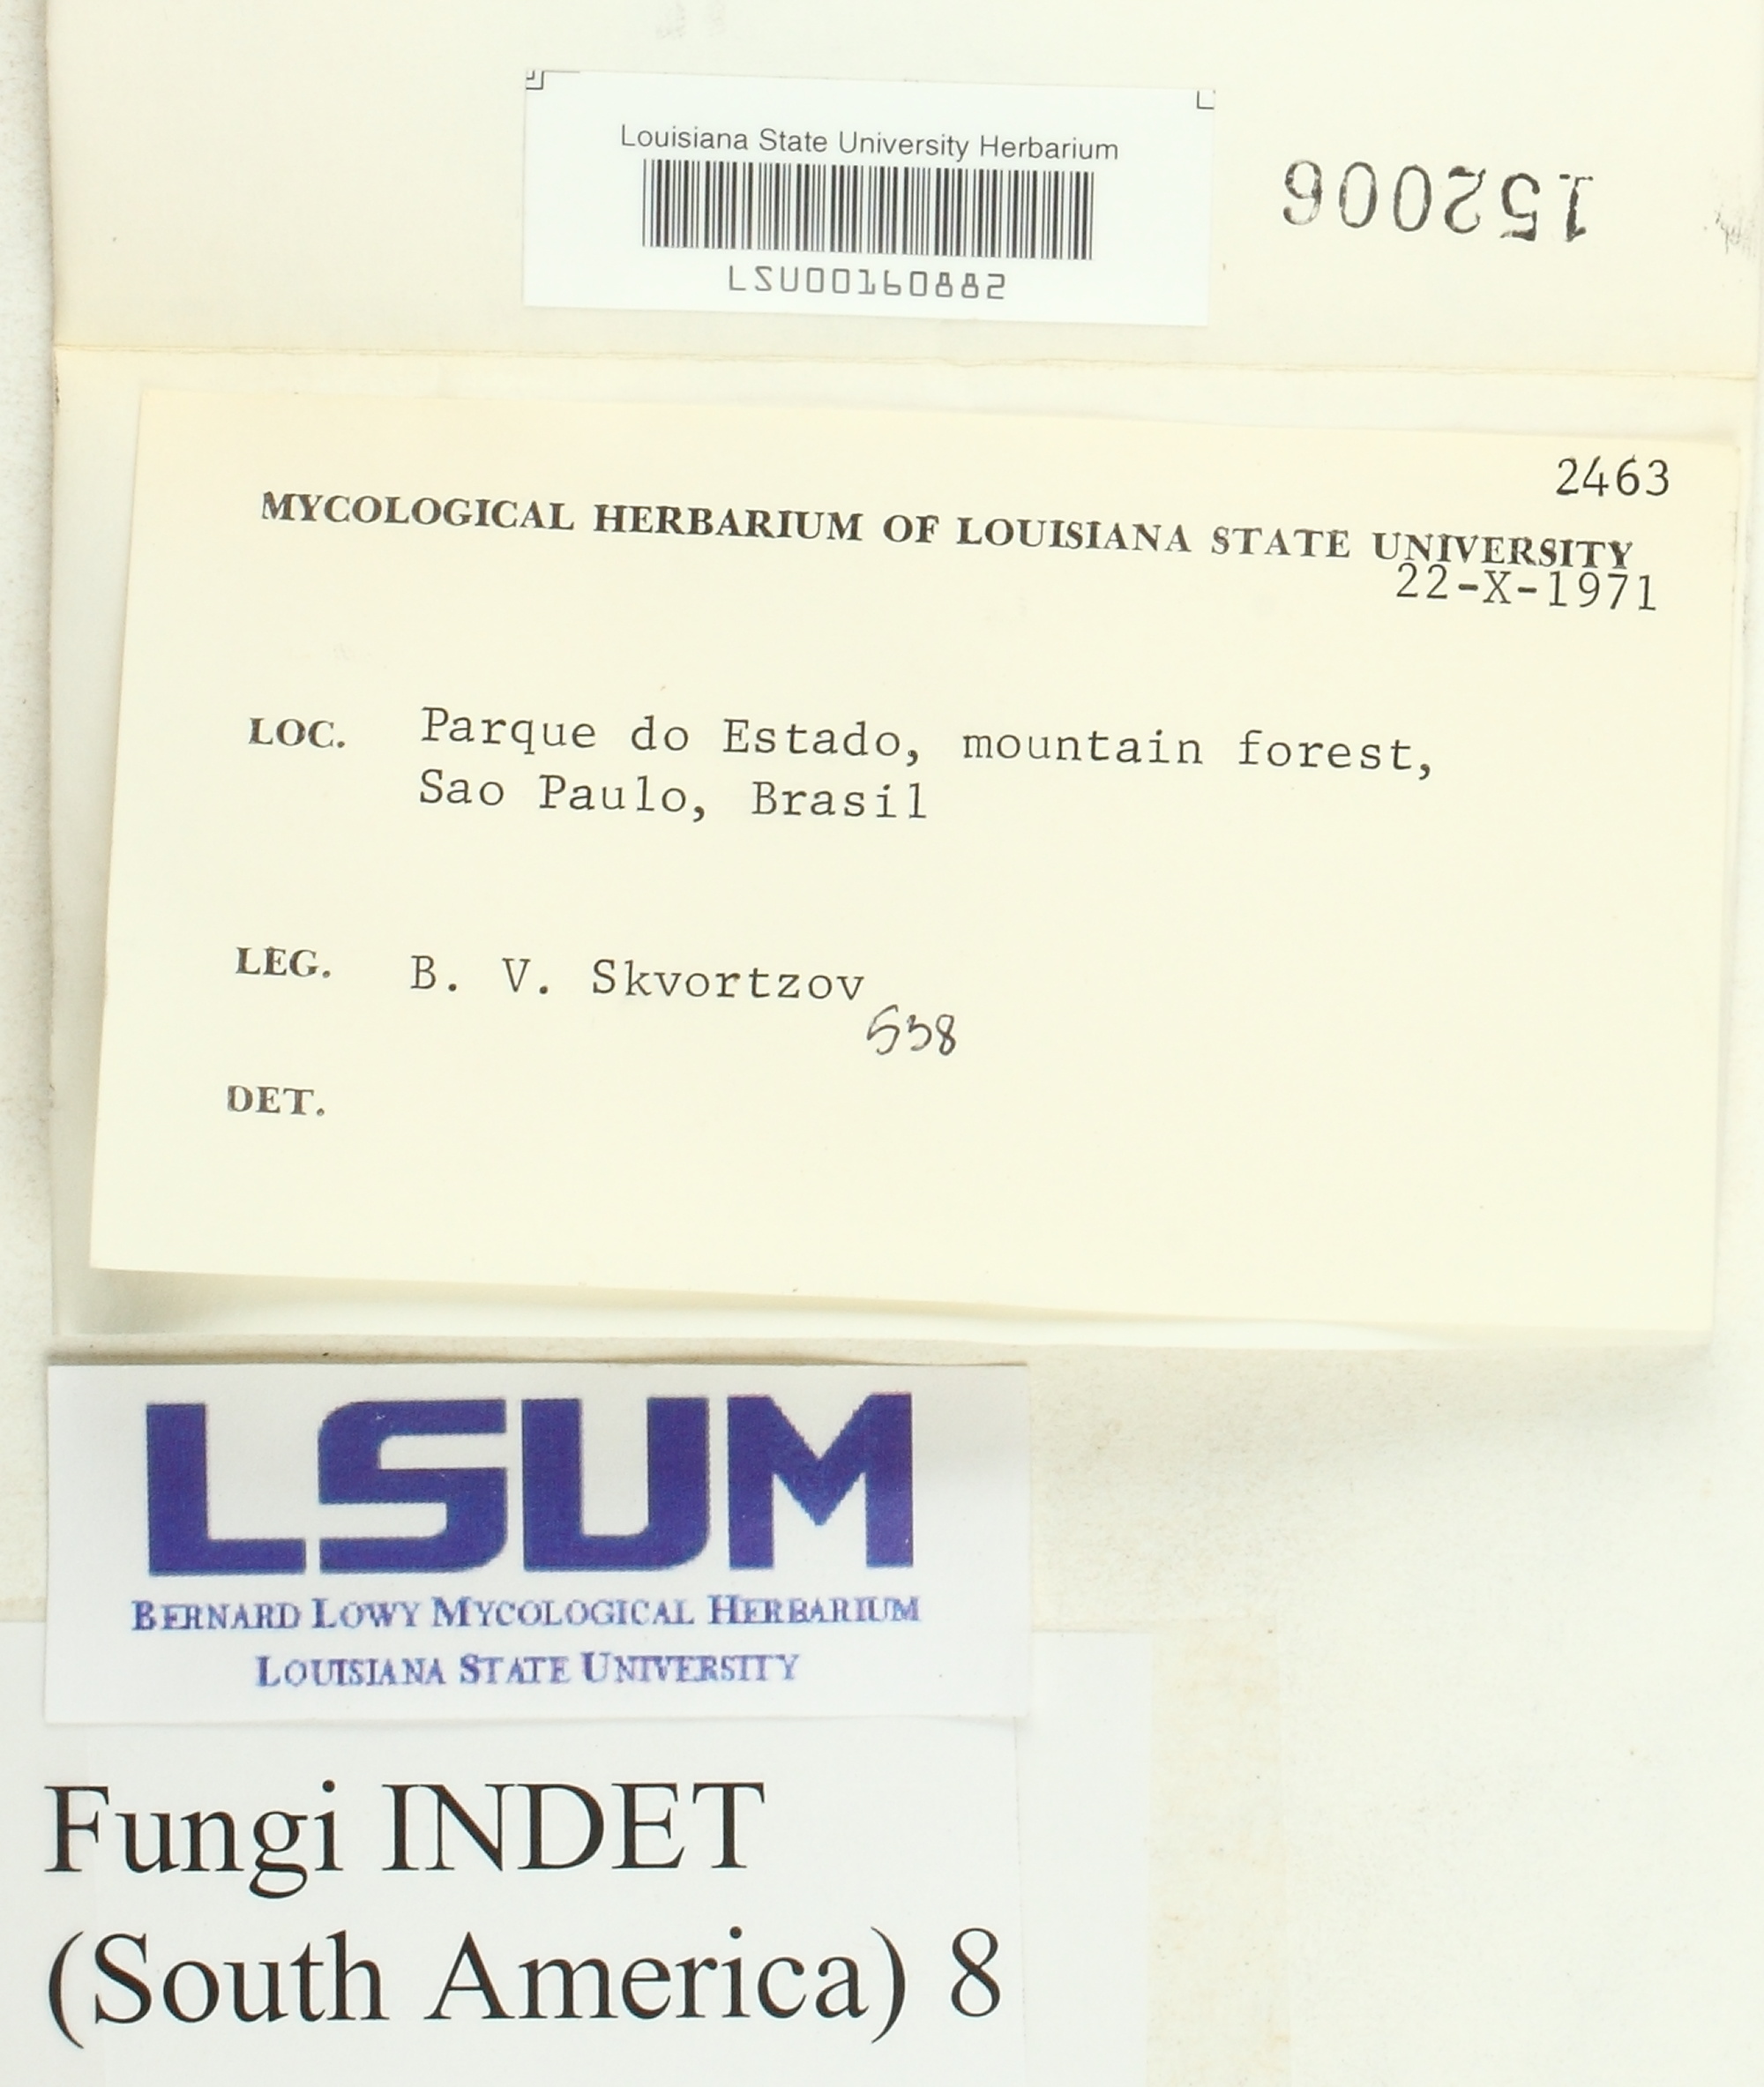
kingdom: Fungi
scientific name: Fungi
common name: Fungi
